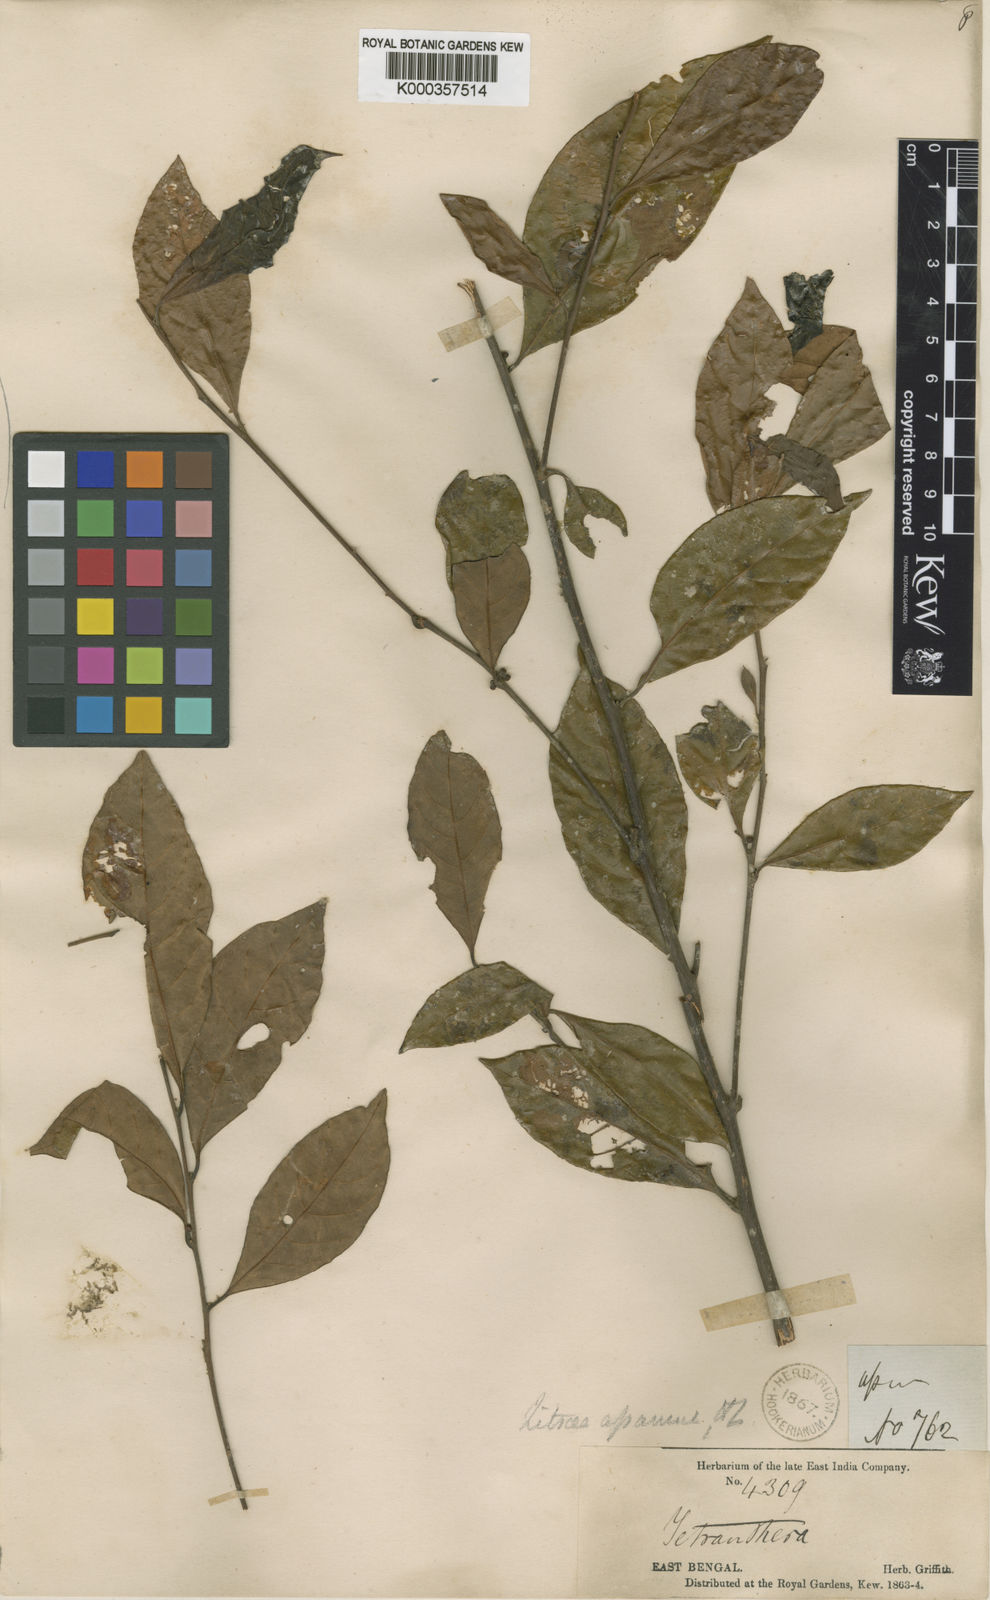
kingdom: Plantae
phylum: Tracheophyta
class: Magnoliopsida
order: Laurales
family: Lauraceae
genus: Litsea
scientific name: Litsea rangoonensis
